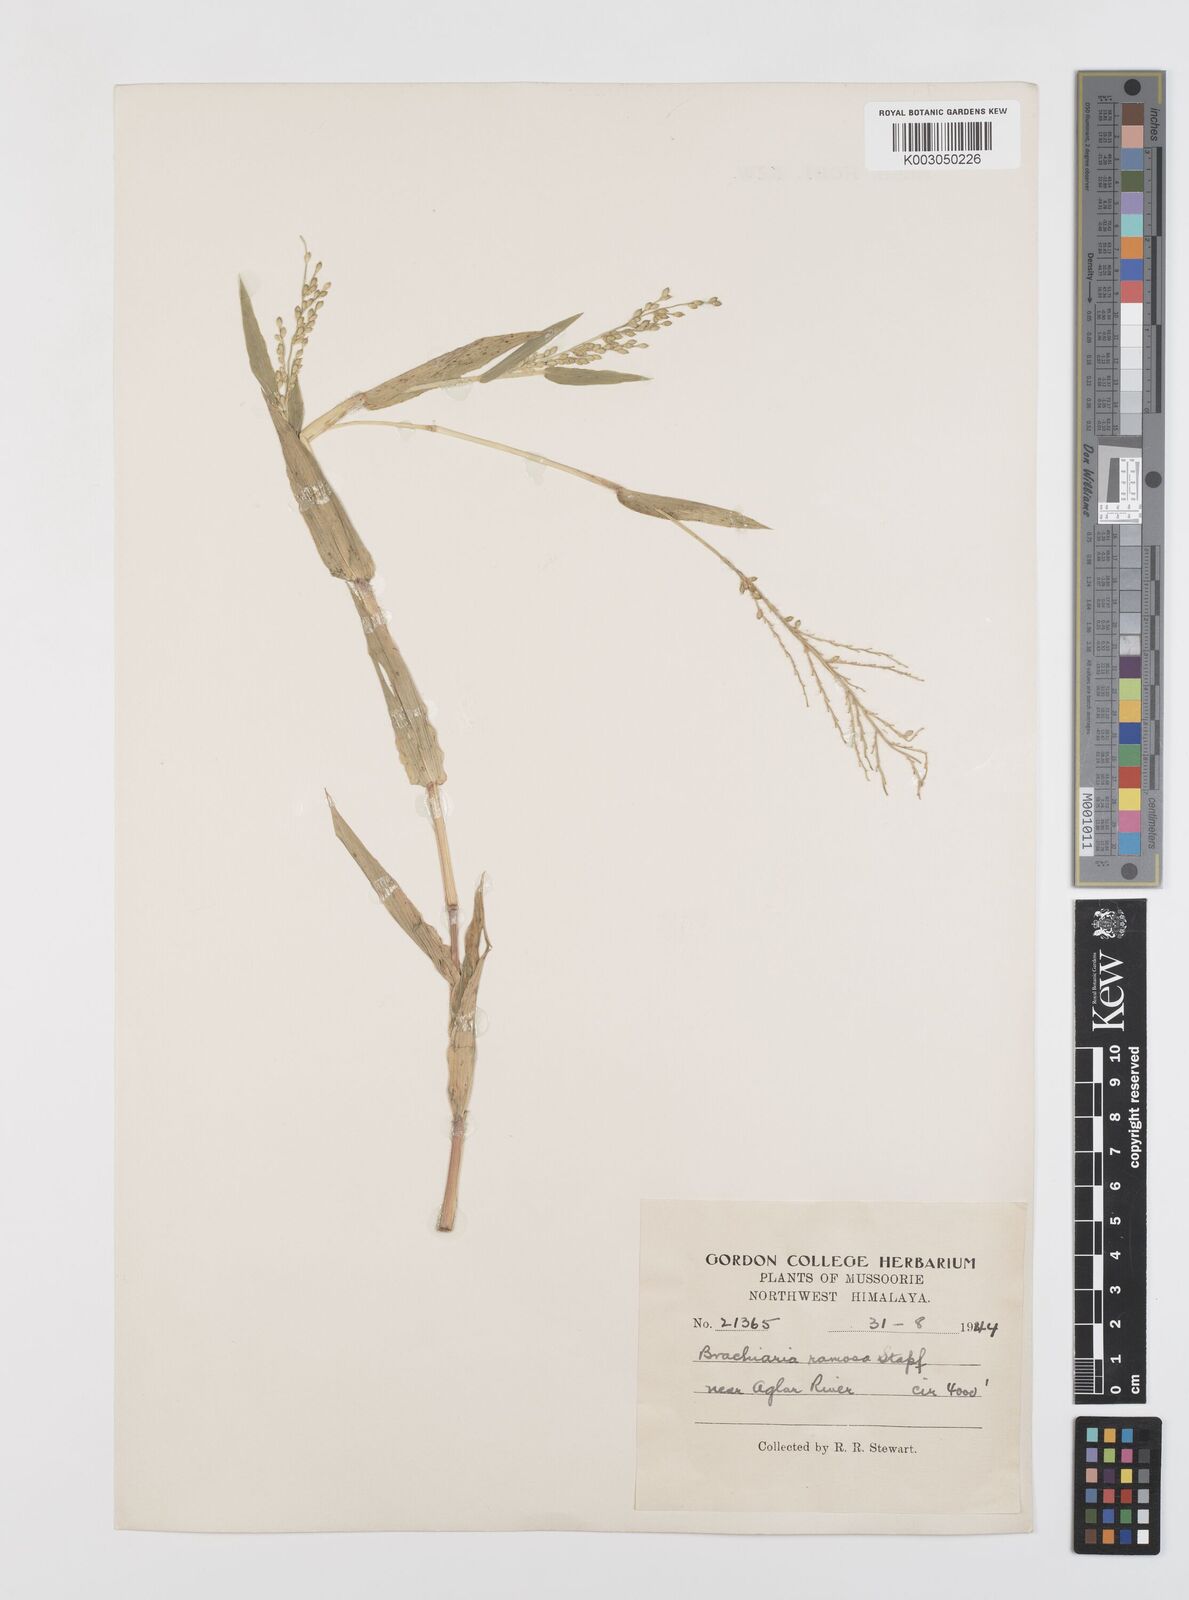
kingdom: Plantae
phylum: Tracheophyta
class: Liliopsida
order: Poales
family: Poaceae
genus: Urochloa
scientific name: Urochloa ramosa
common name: Browntop millet
